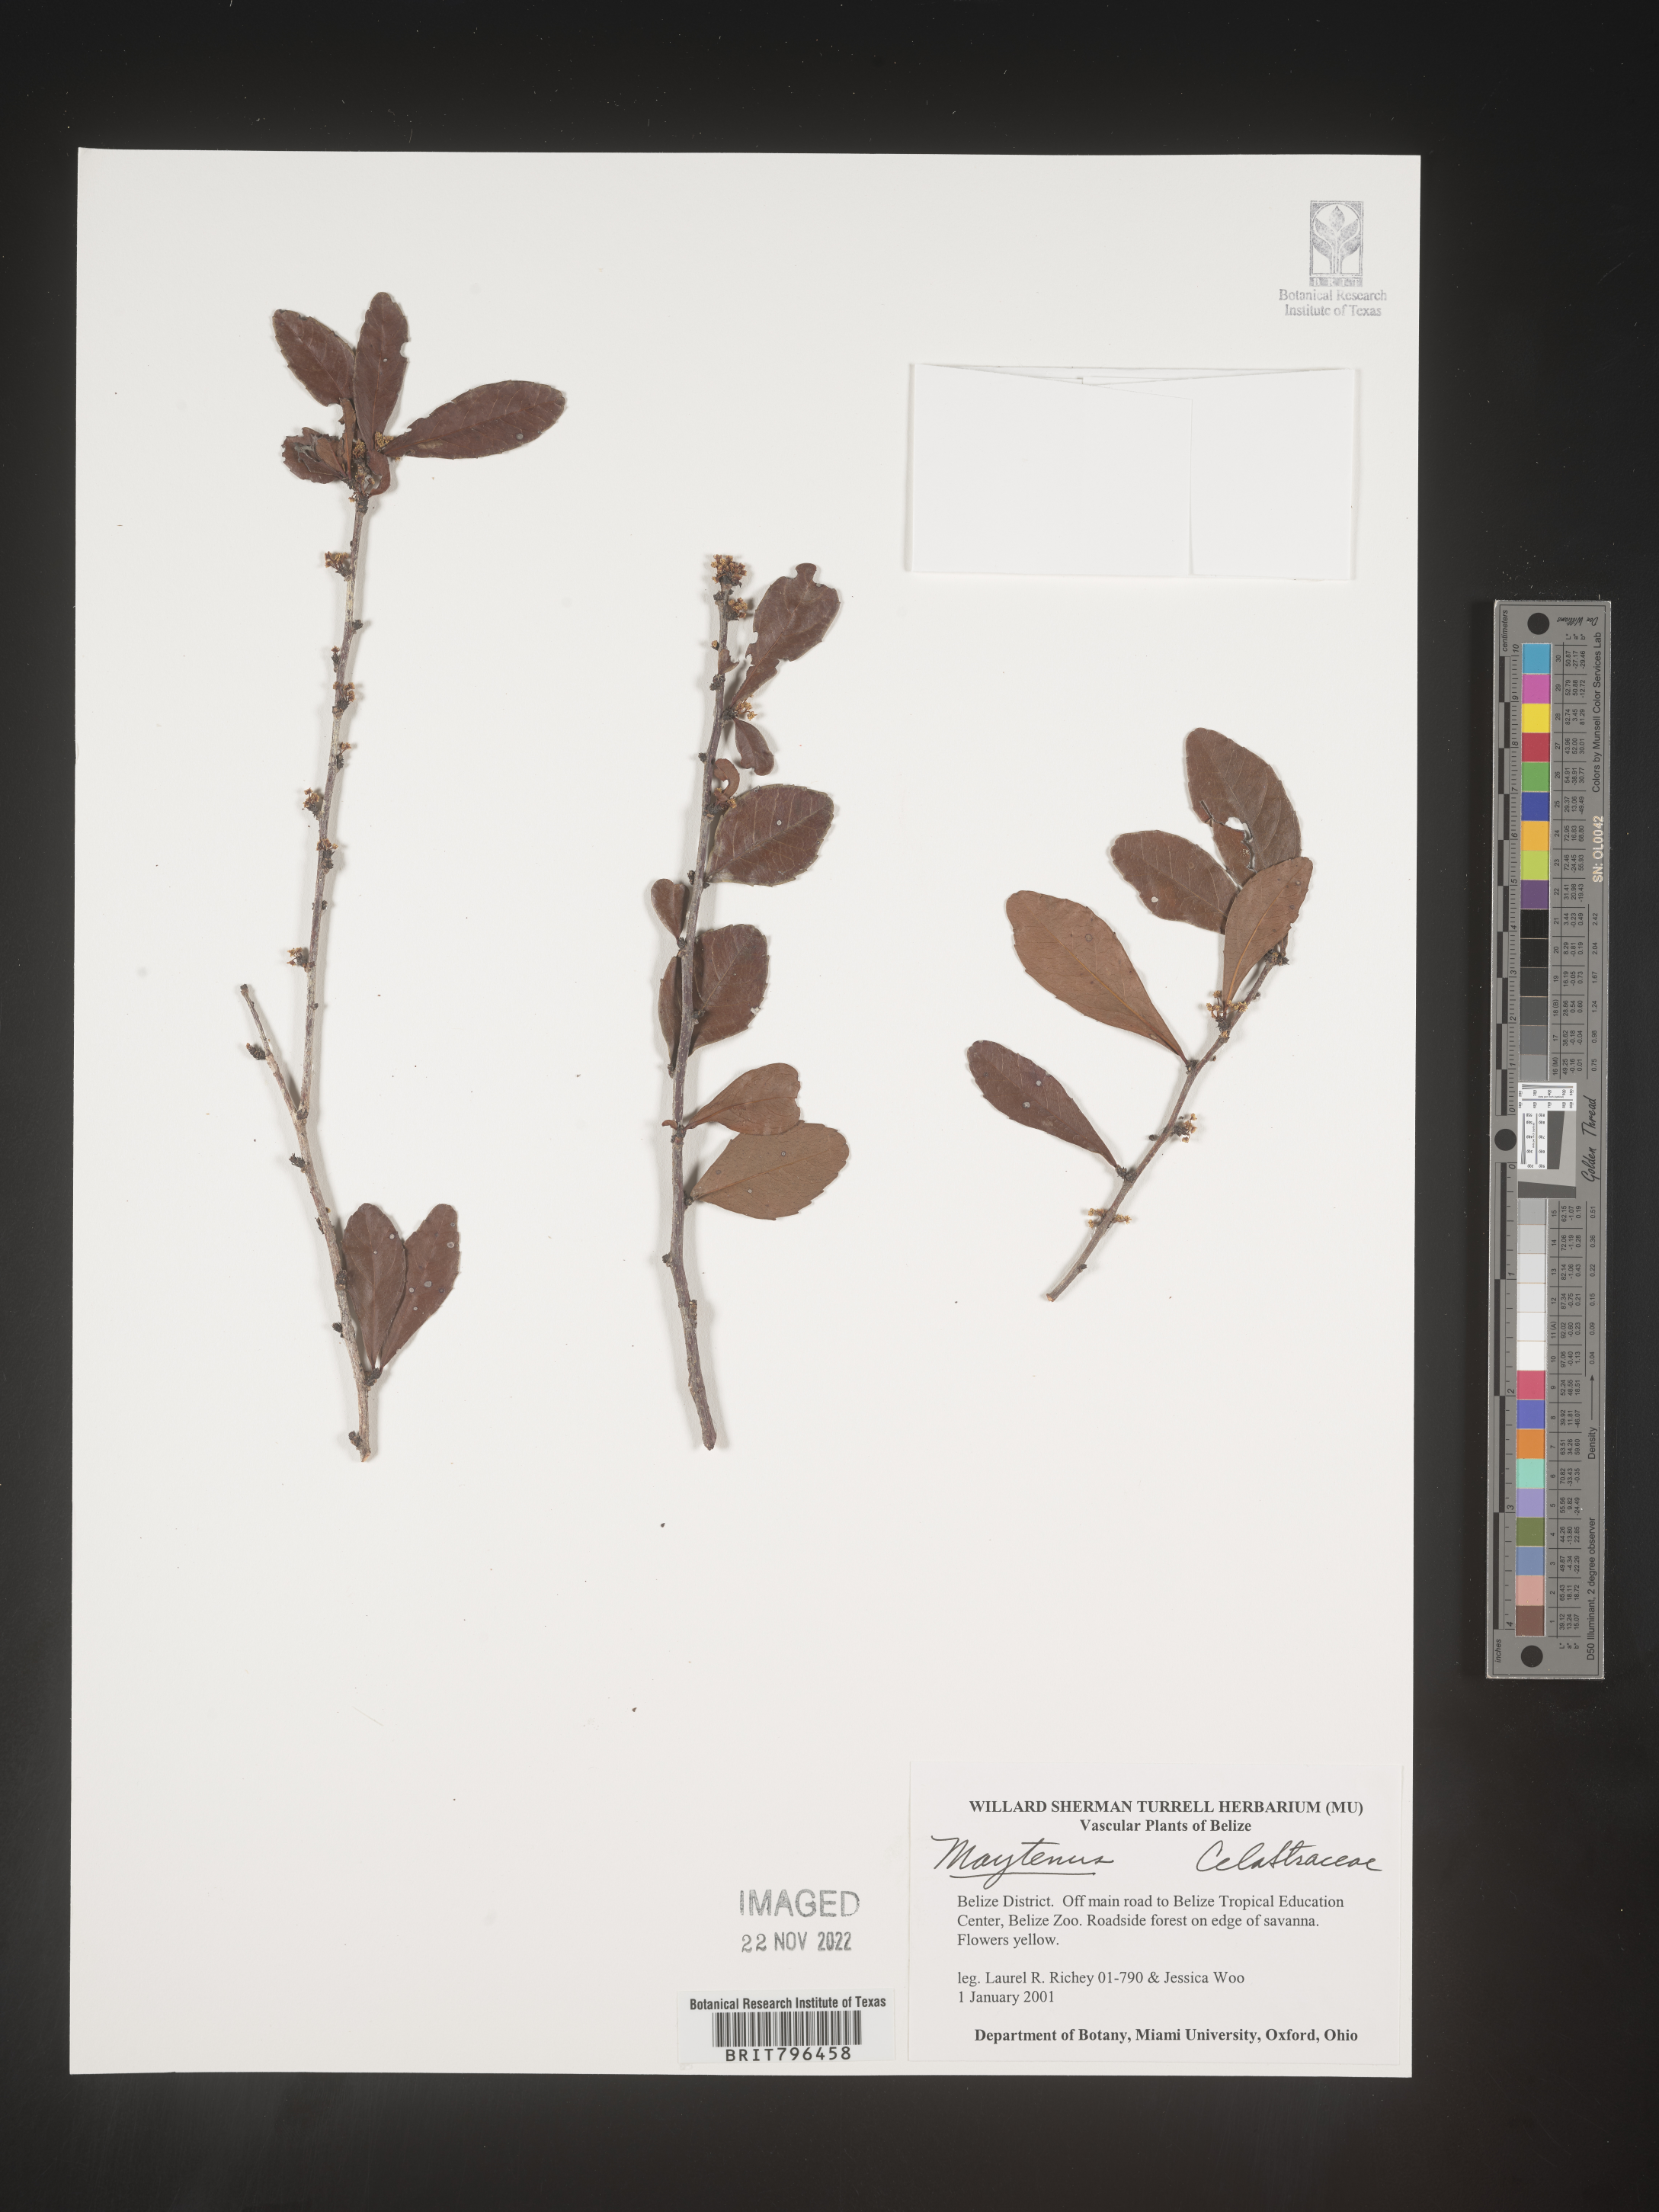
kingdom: Plantae
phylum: Tracheophyta
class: Magnoliopsida
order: Celastrales
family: Celastraceae
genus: Maytenus
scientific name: Maytenus
